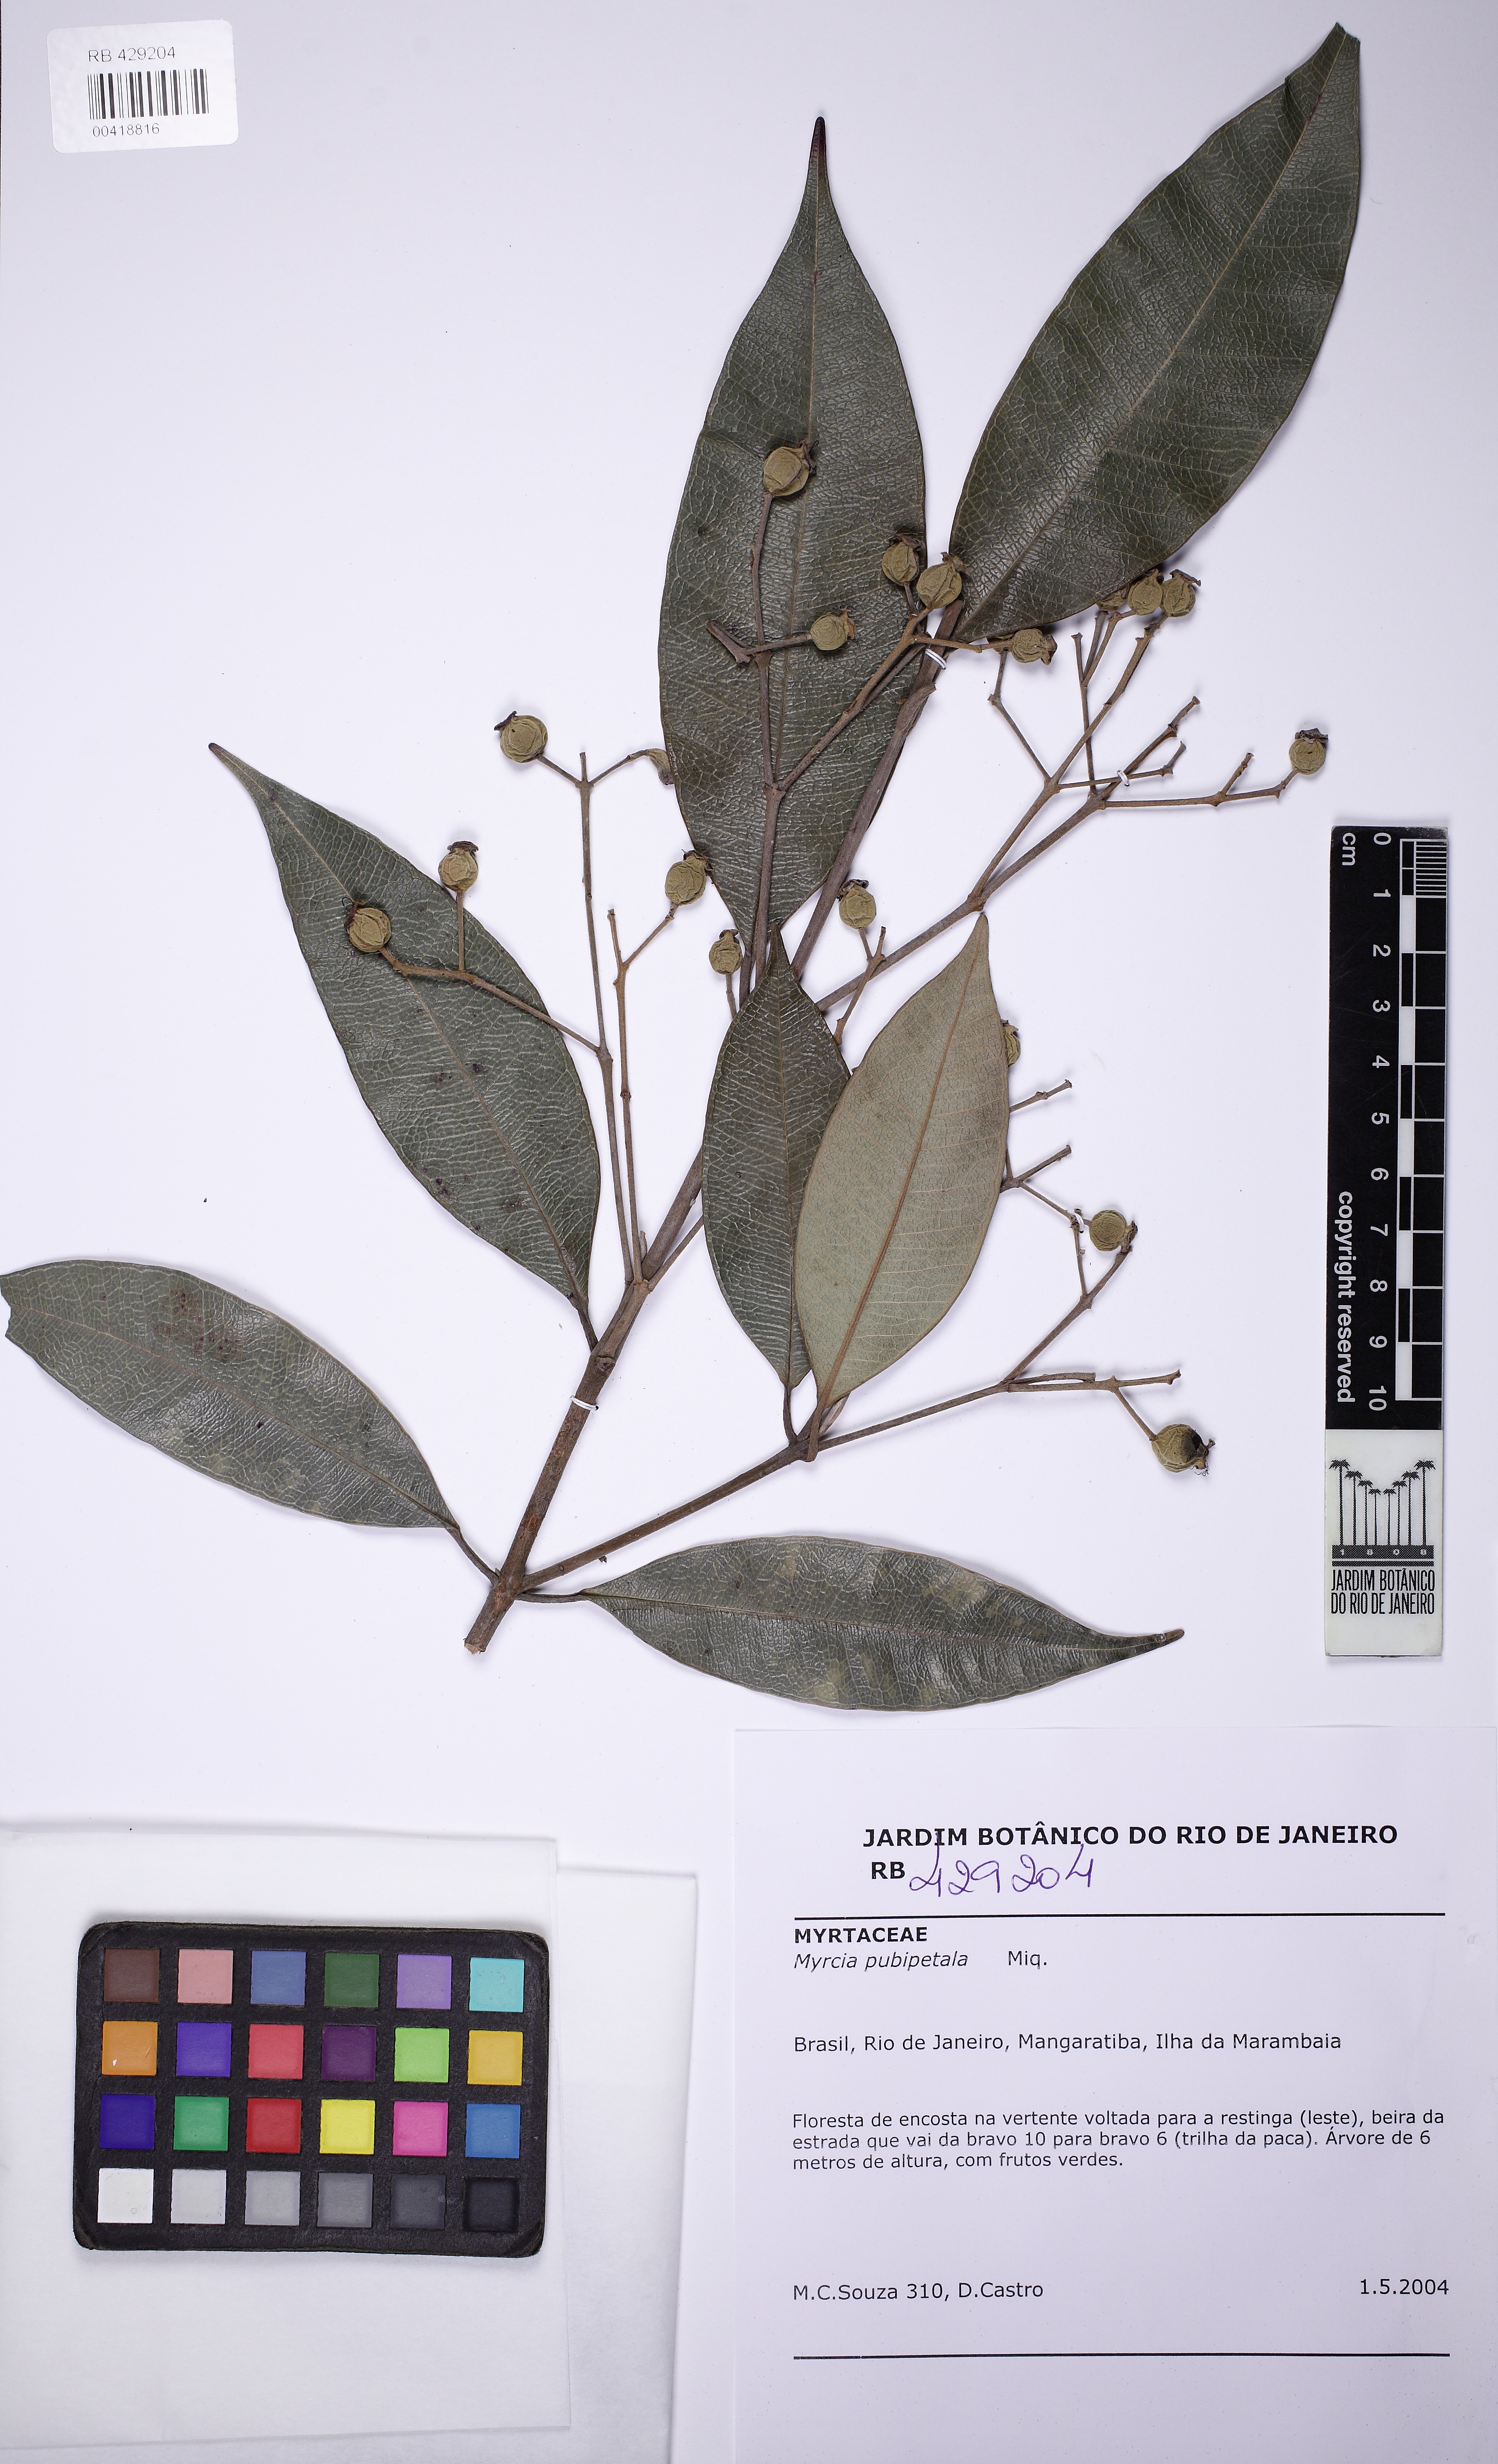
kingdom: Plantae
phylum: Tracheophyta
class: Magnoliopsida
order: Myrtales
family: Myrtaceae
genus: Myrcia
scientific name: Myrcia pubipetala
